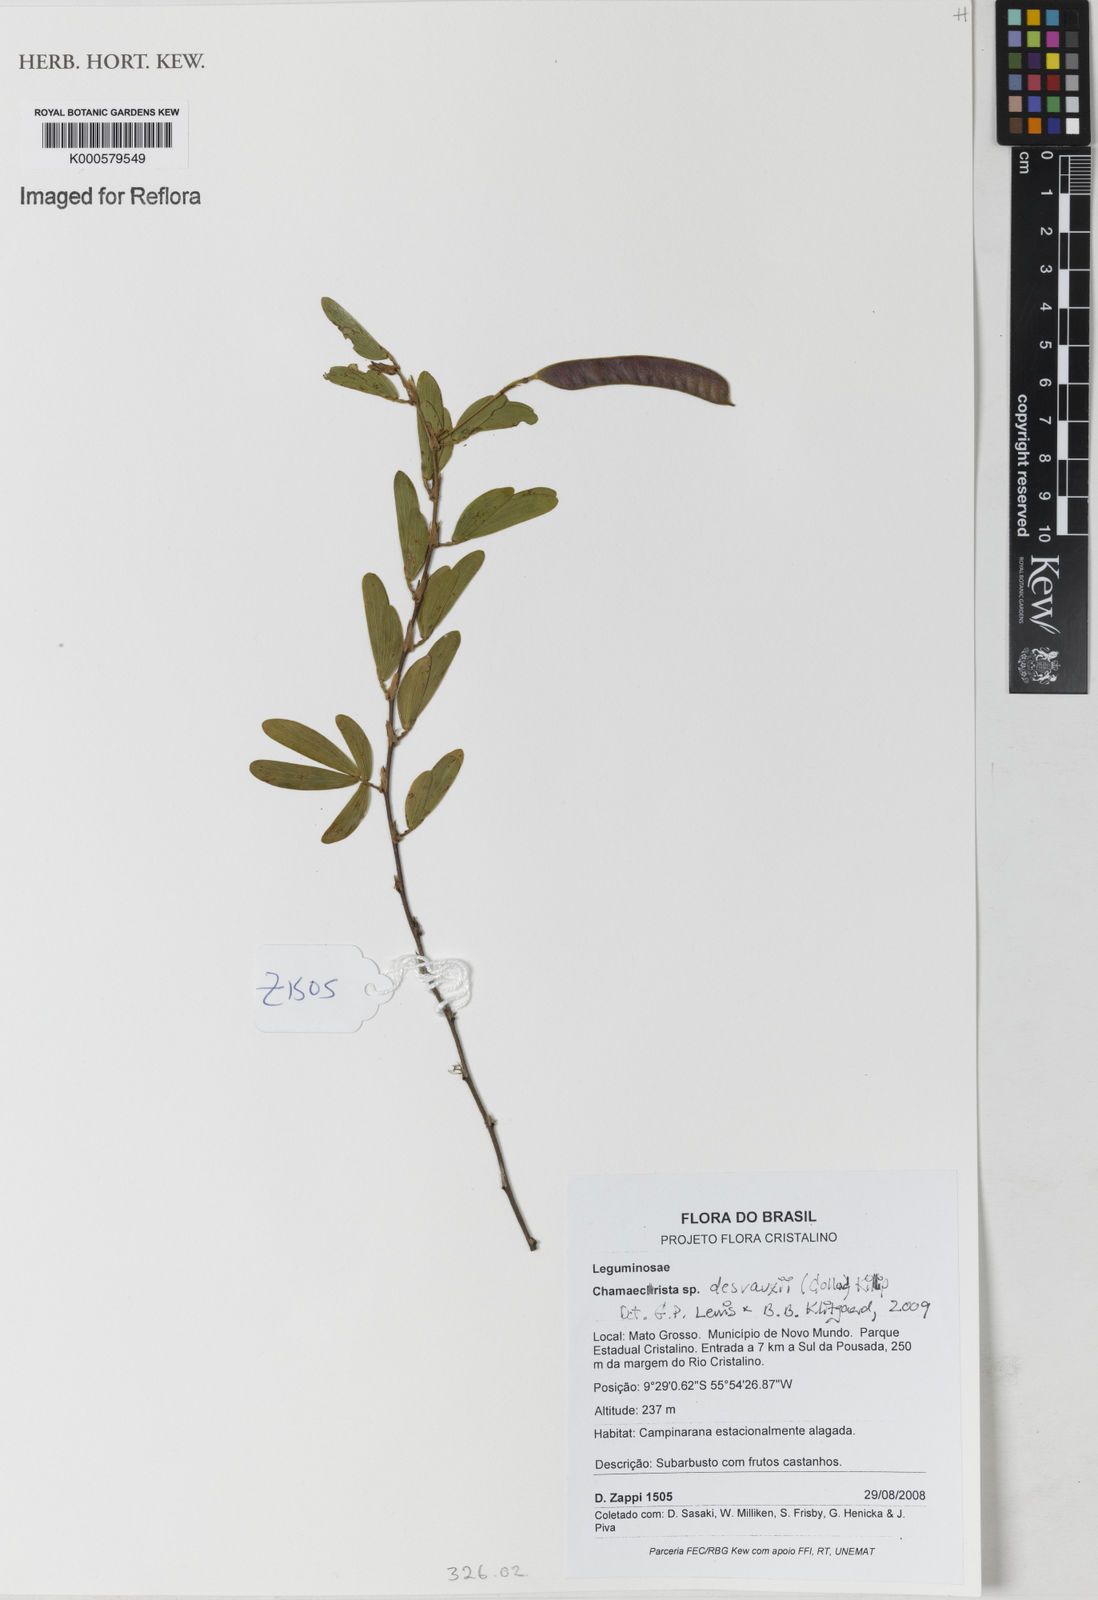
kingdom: Plantae
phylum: Tracheophyta
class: Magnoliopsida
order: Fabales
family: Fabaceae
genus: Chamaecrista
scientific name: Chamaecrista desvauxii
